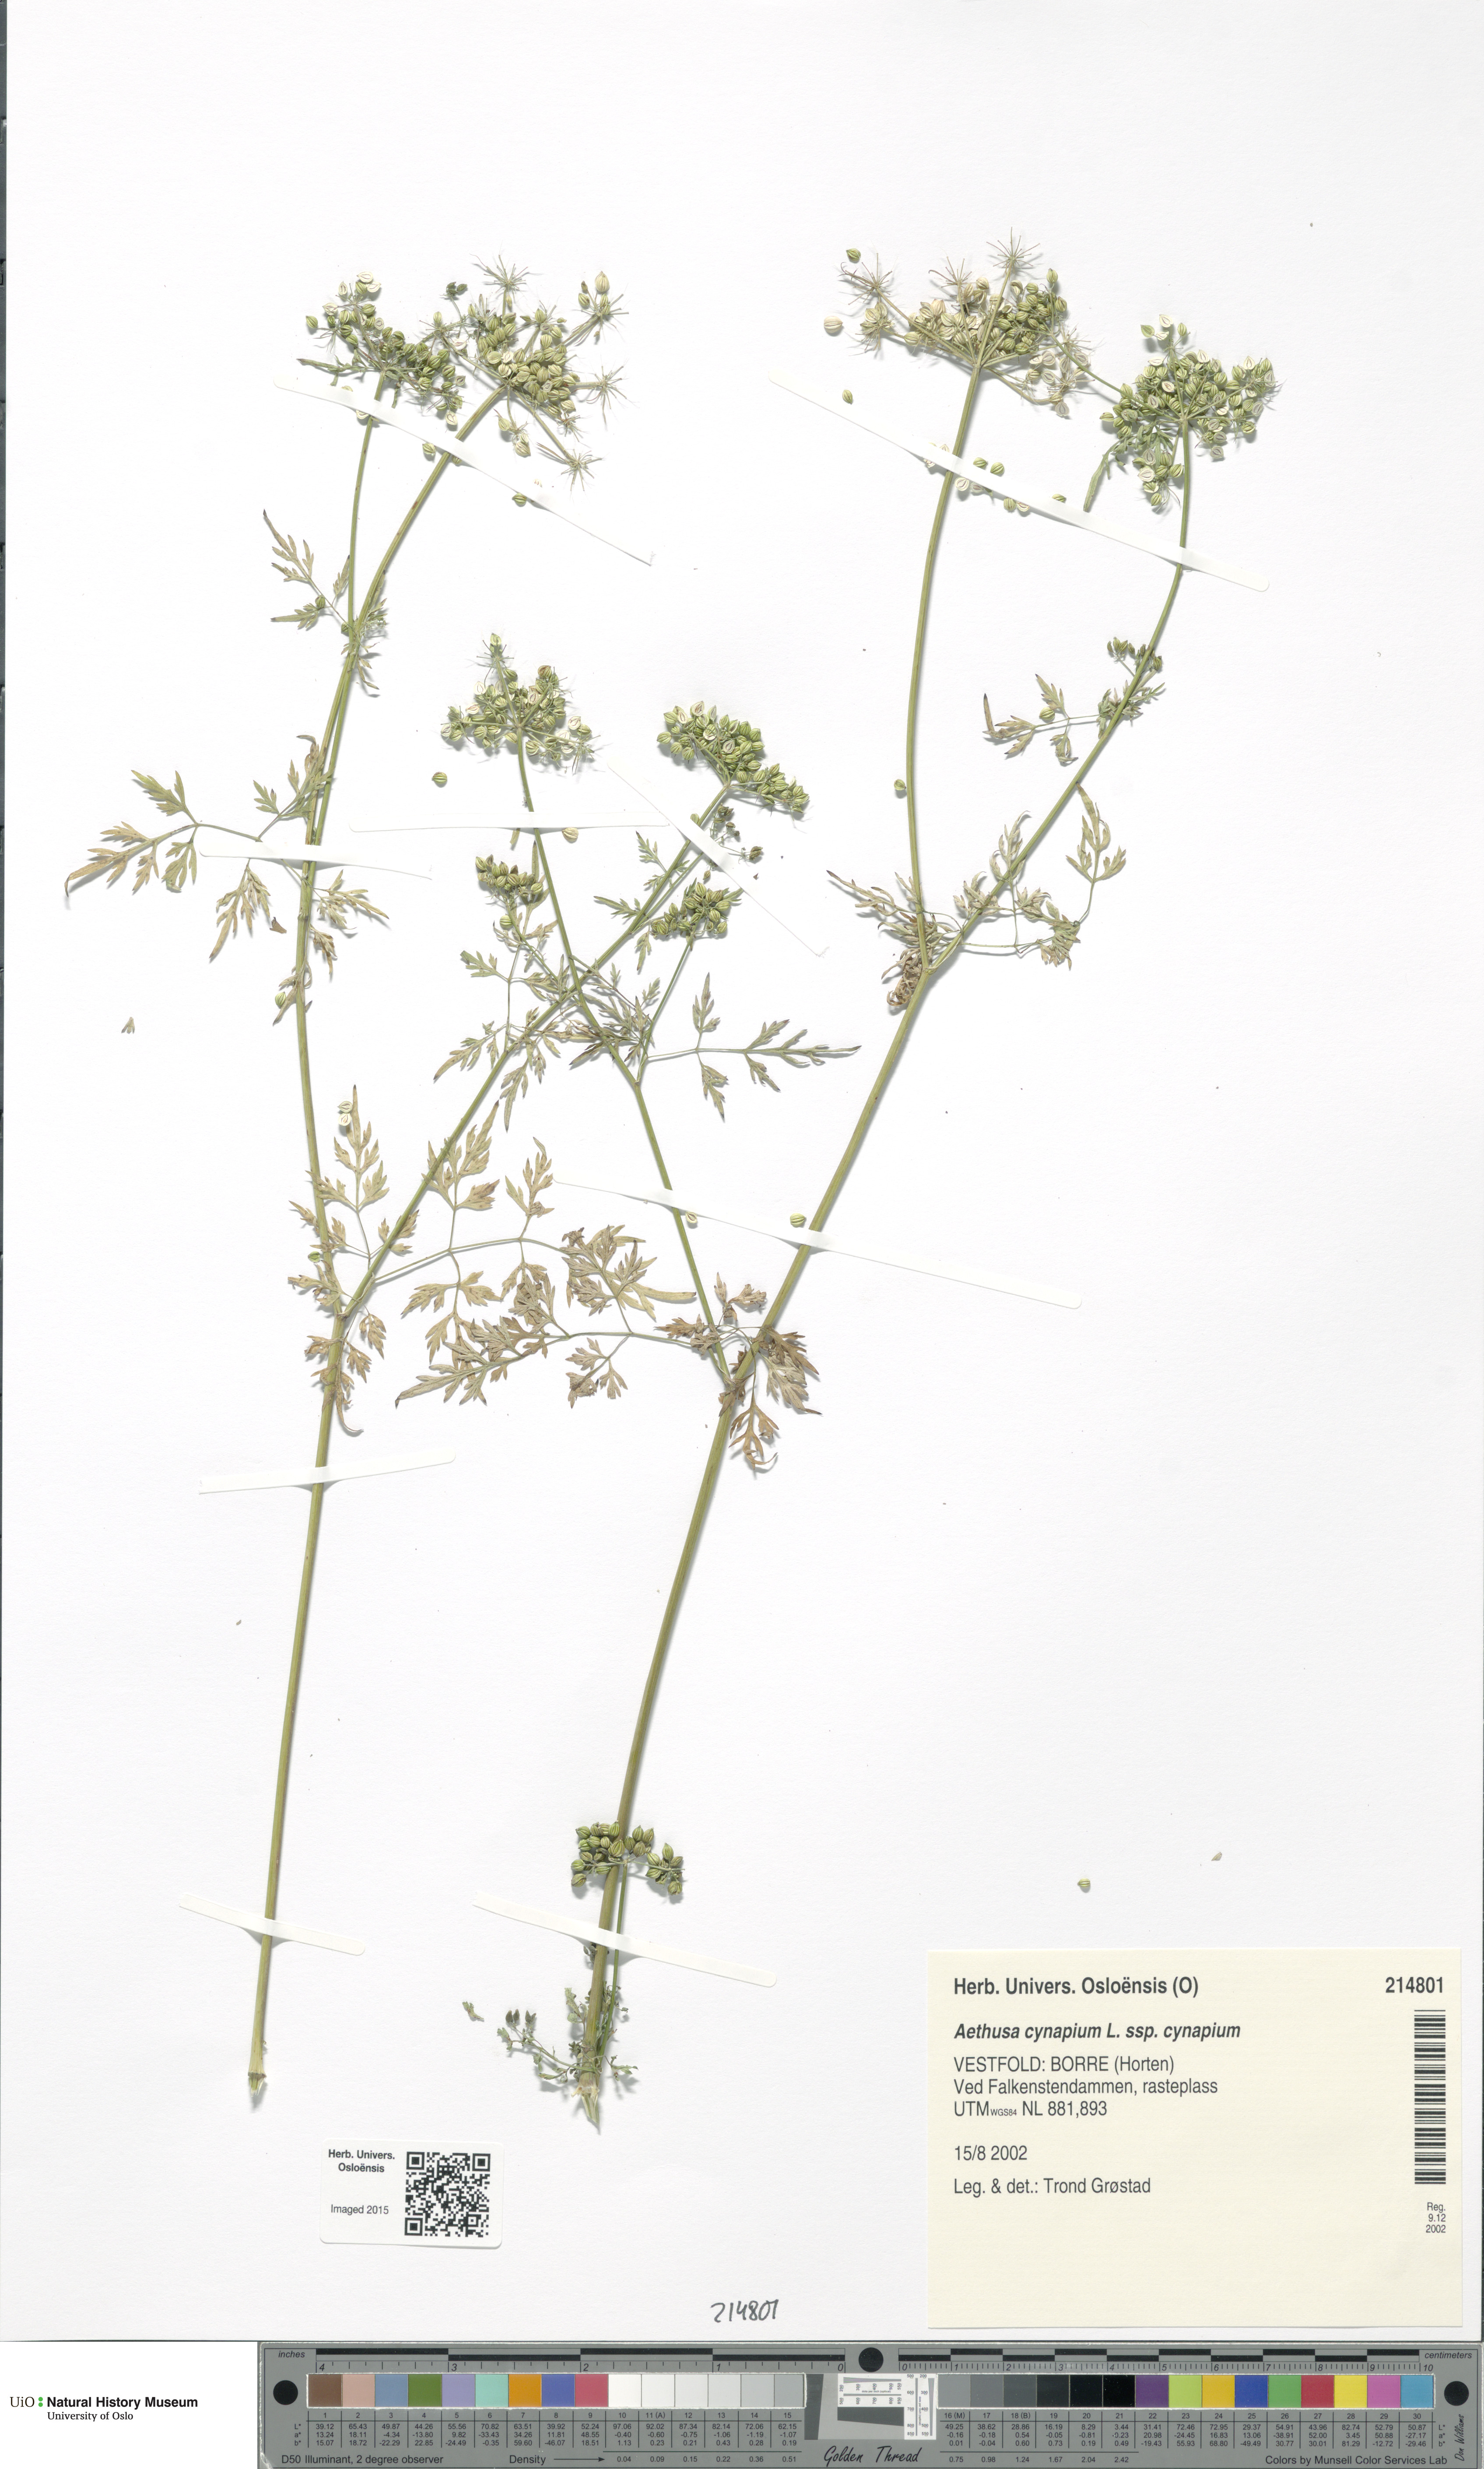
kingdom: Plantae
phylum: Tracheophyta
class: Magnoliopsida
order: Apiales
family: Apiaceae
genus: Aethusa
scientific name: Aethusa cynapium
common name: Fool's parsley
